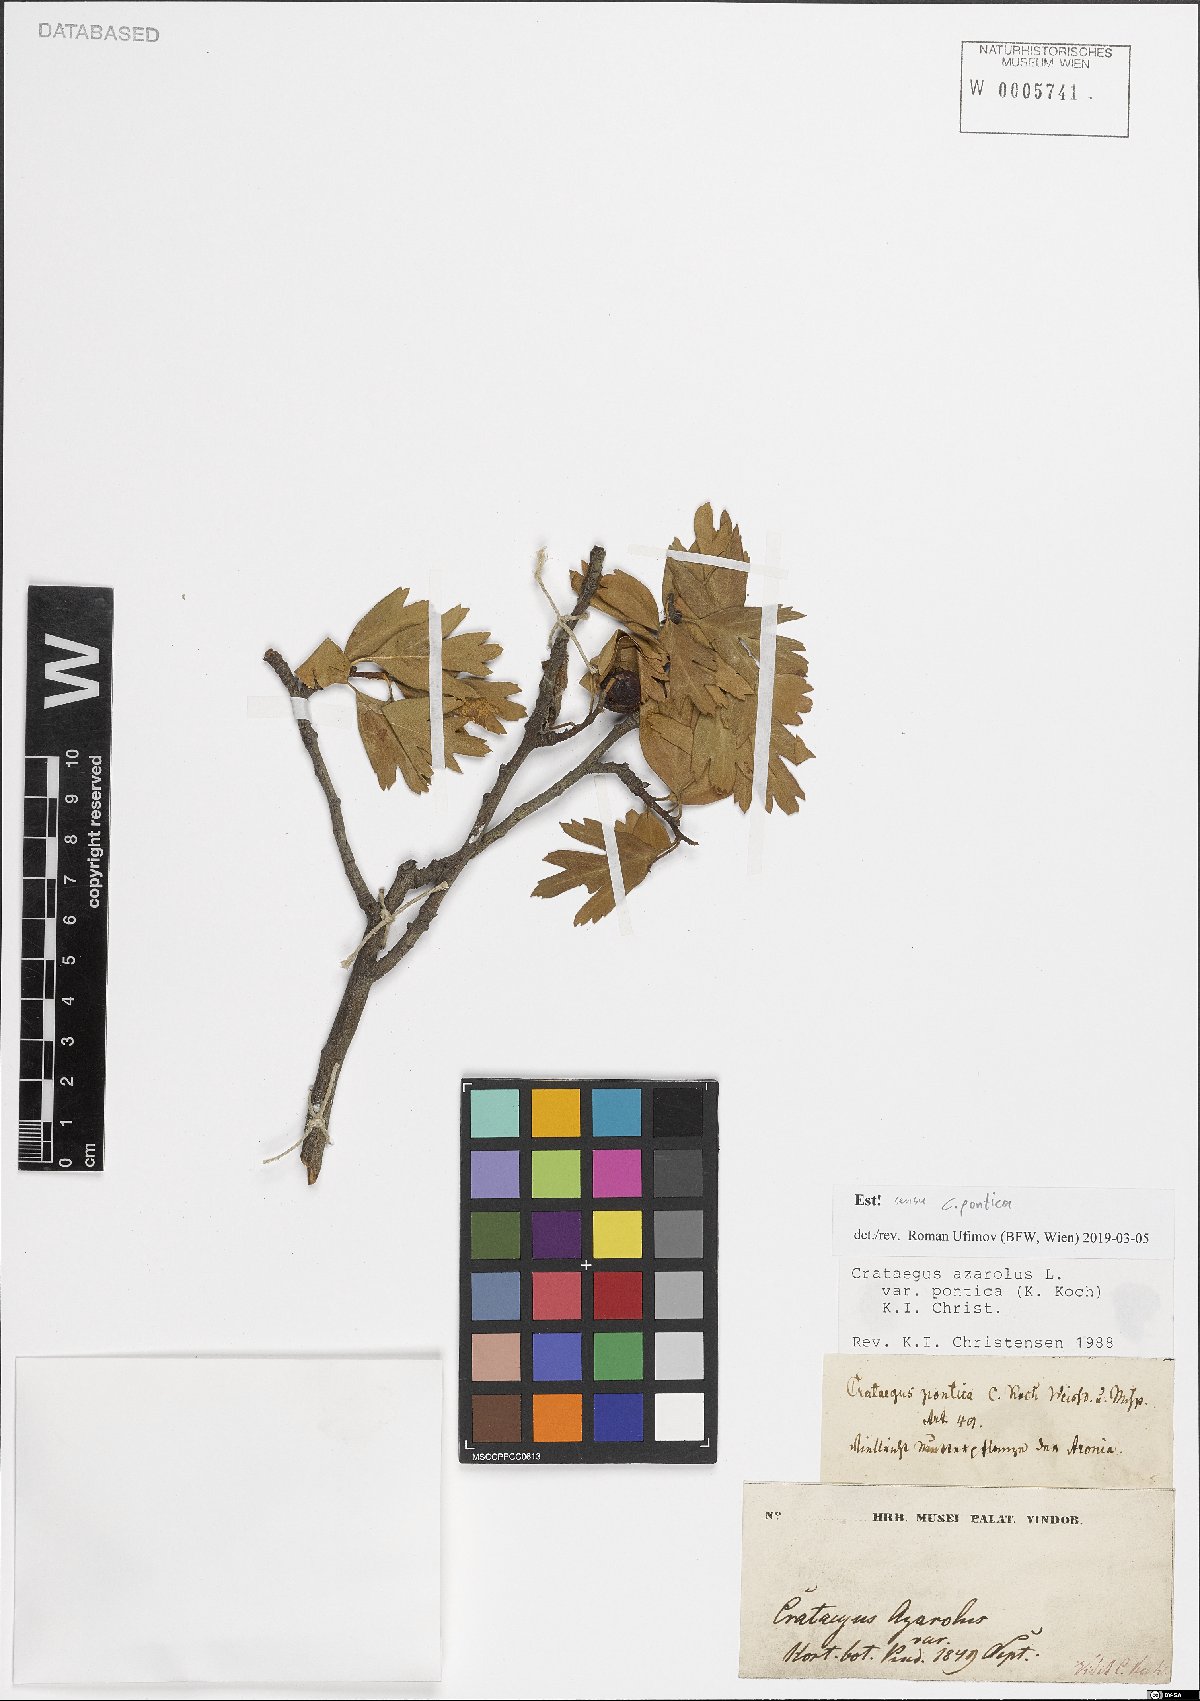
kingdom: Plantae
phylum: Tracheophyta
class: Magnoliopsida
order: Rosales
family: Rosaceae
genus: Crataegus
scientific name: Crataegus azarolus
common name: Azarole
